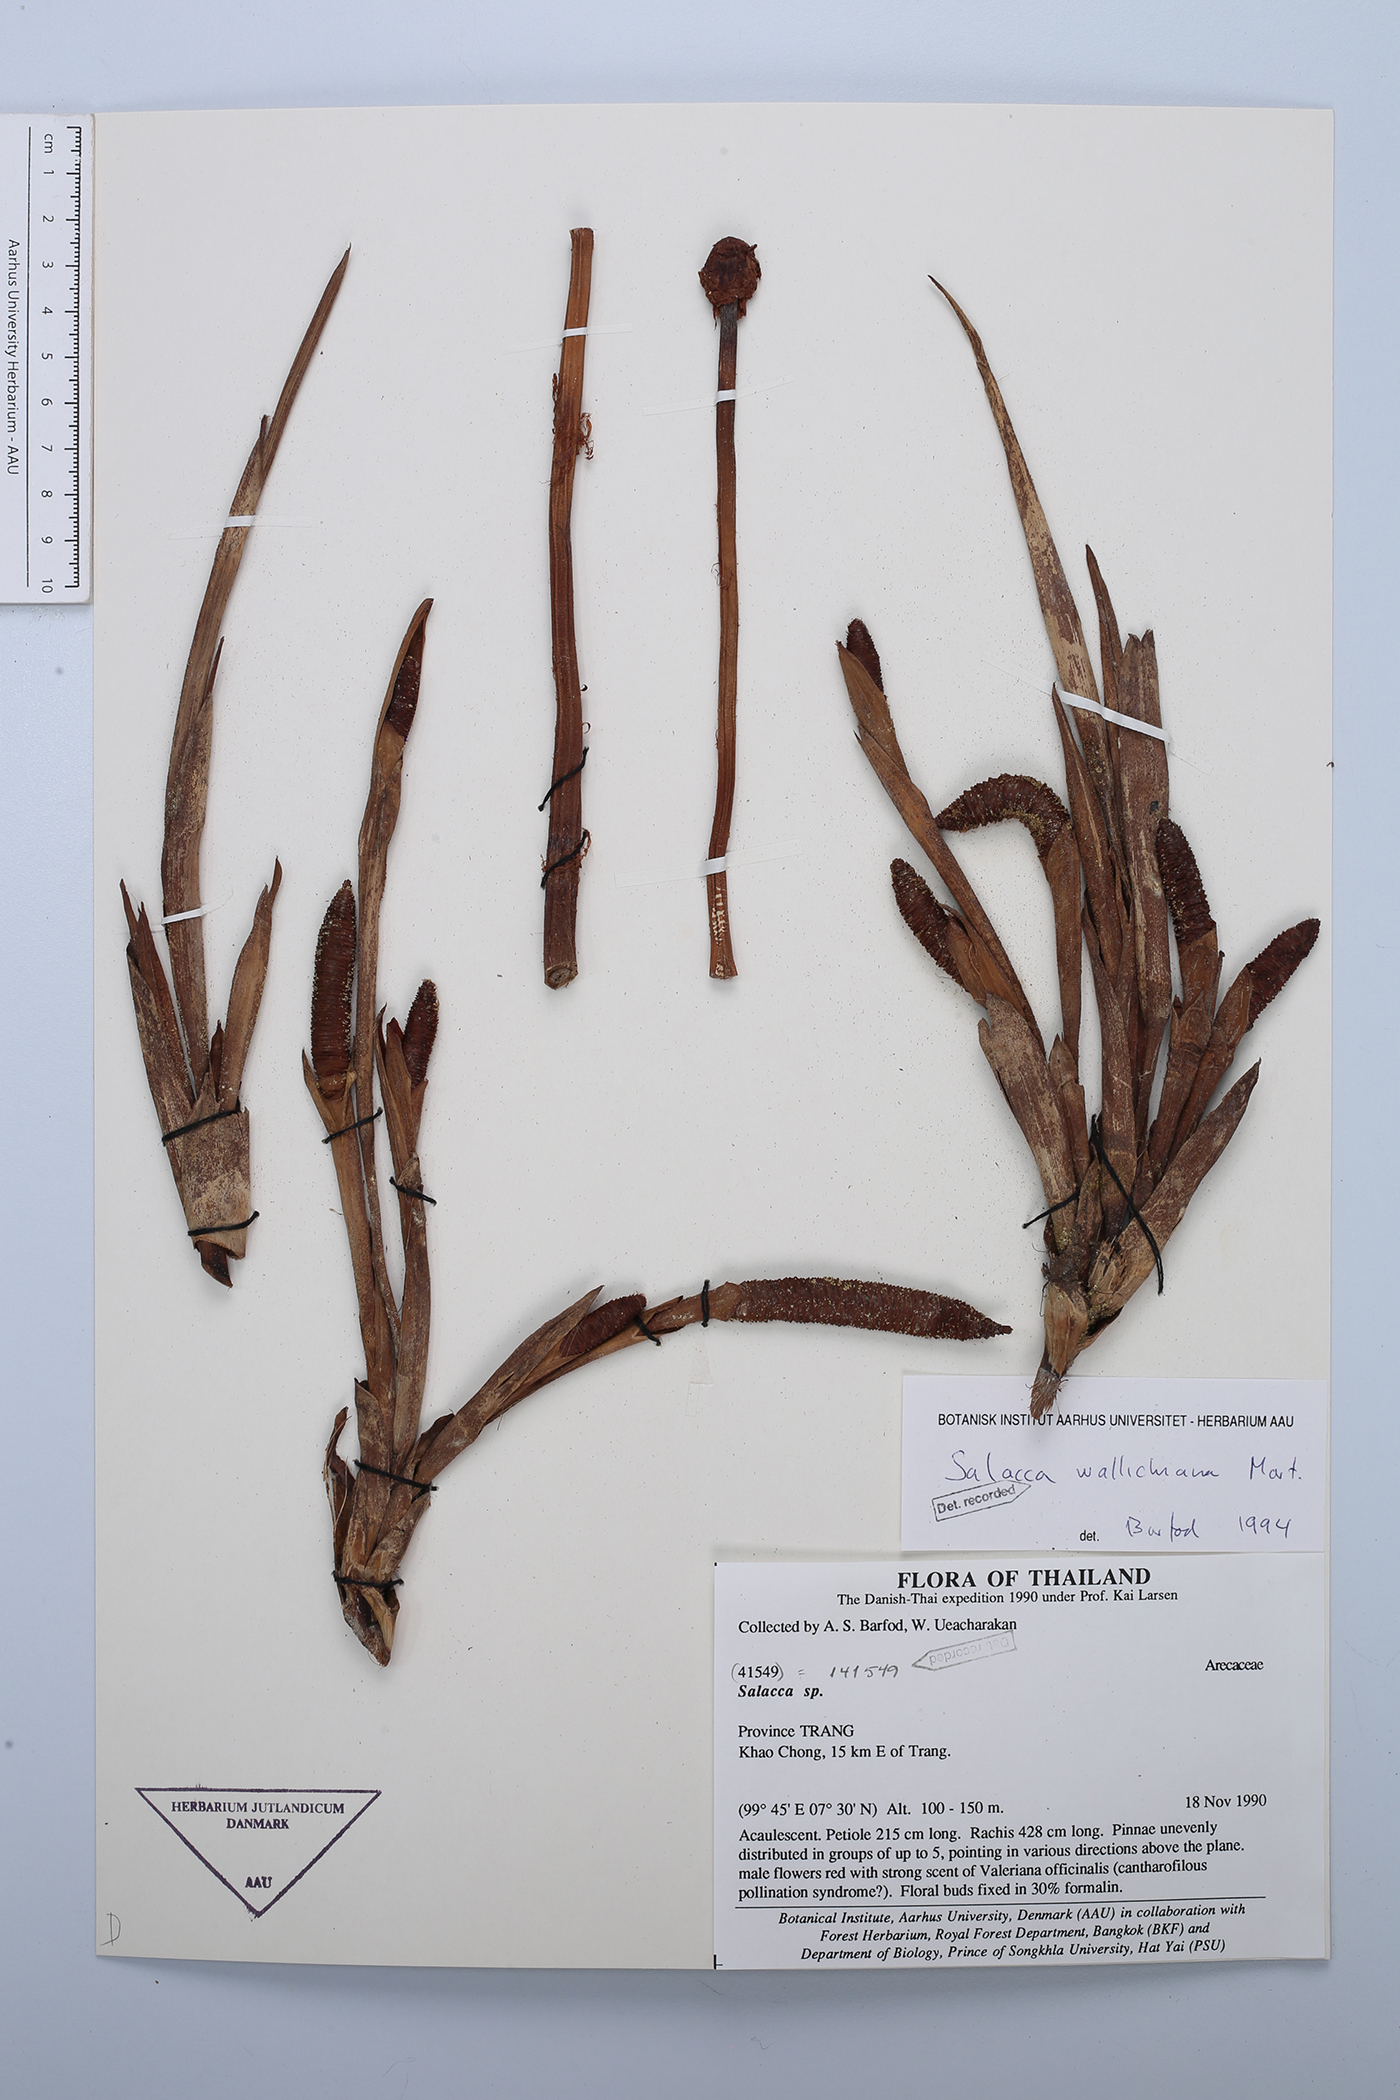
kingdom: Plantae
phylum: Tracheophyta
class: Liliopsida
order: Arecales
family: Arecaceae
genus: Salacca
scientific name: Salacca wallichiana
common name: Rakum palm
